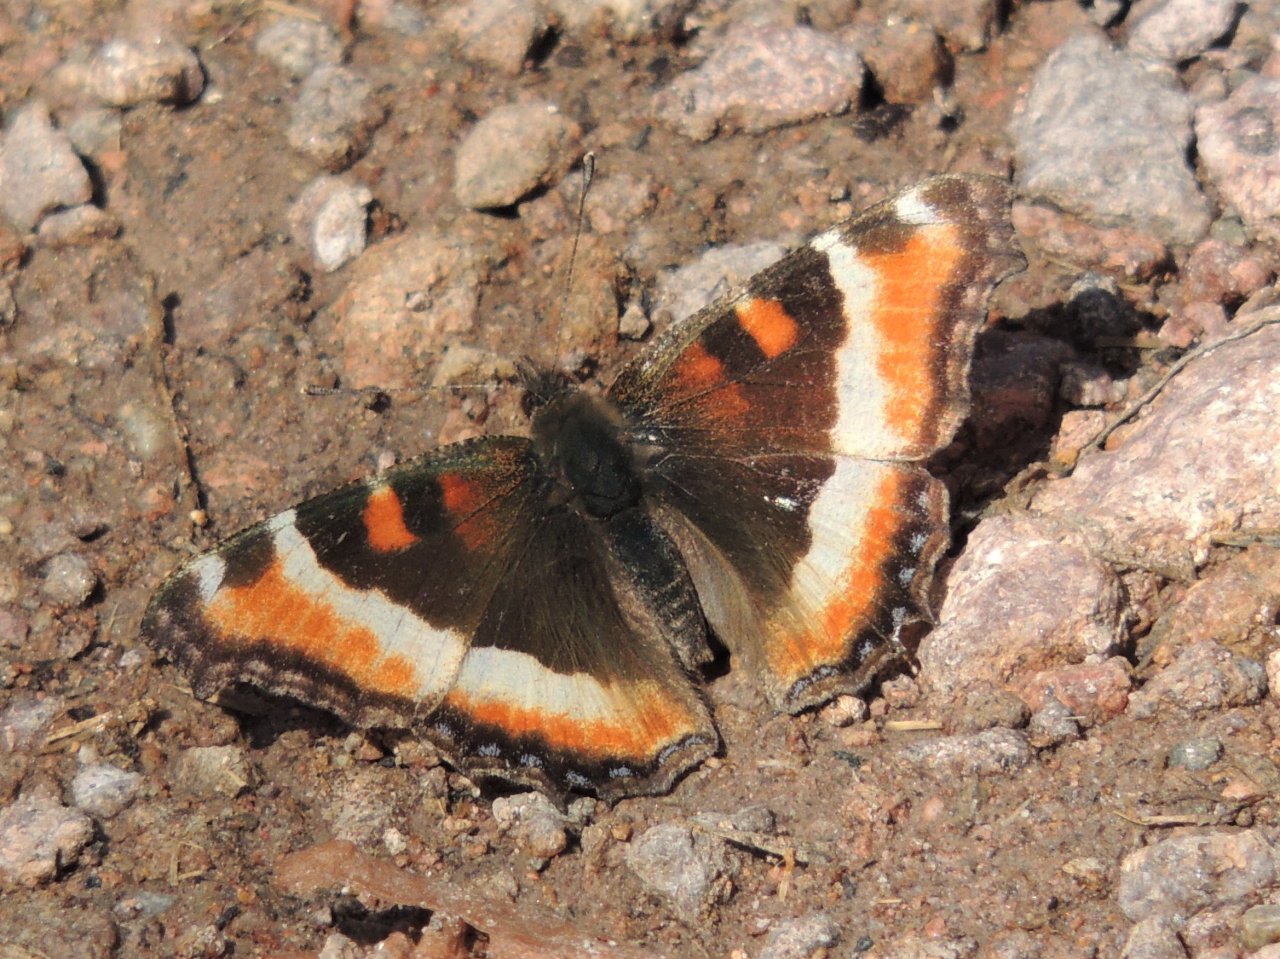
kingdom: Animalia
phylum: Arthropoda
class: Insecta
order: Lepidoptera
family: Nymphalidae
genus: Aglais
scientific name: Aglais milberti
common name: Milbert's Tortoiseshell
